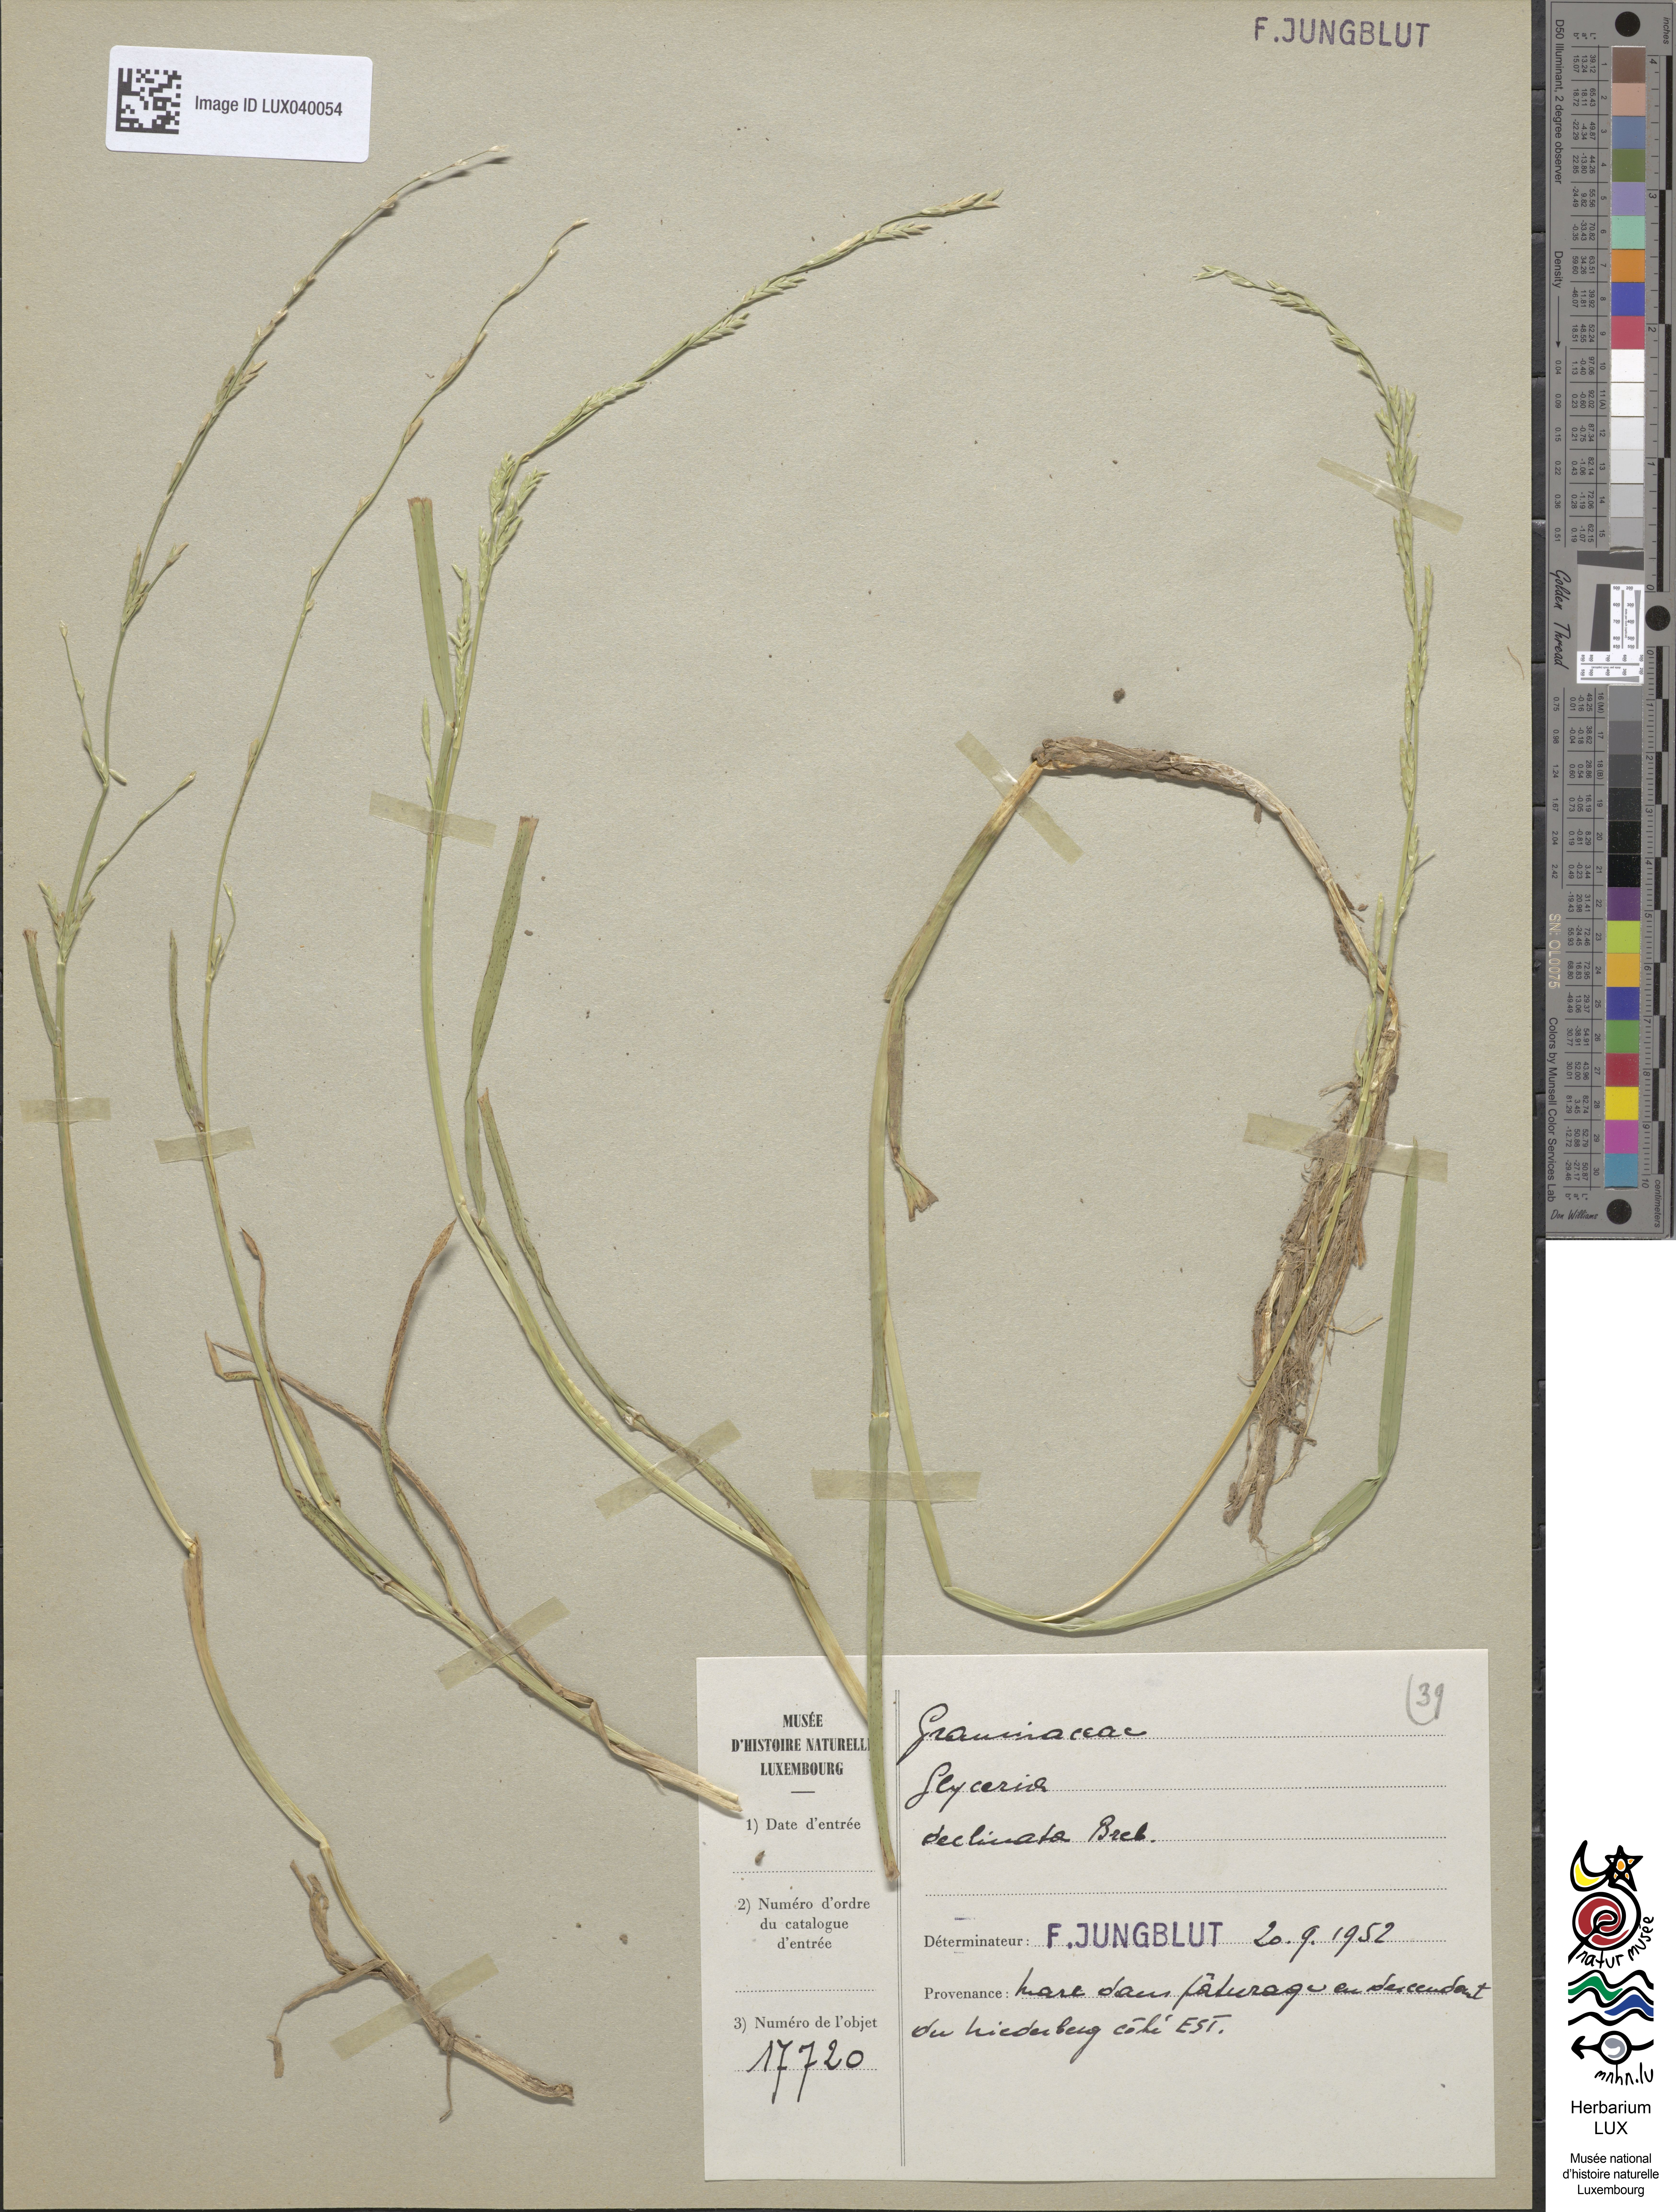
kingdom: Plantae
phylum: Tracheophyta
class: Liliopsida
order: Poales
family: Poaceae
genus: Glyceria
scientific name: Glyceria declinata
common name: Small sweet-grass
